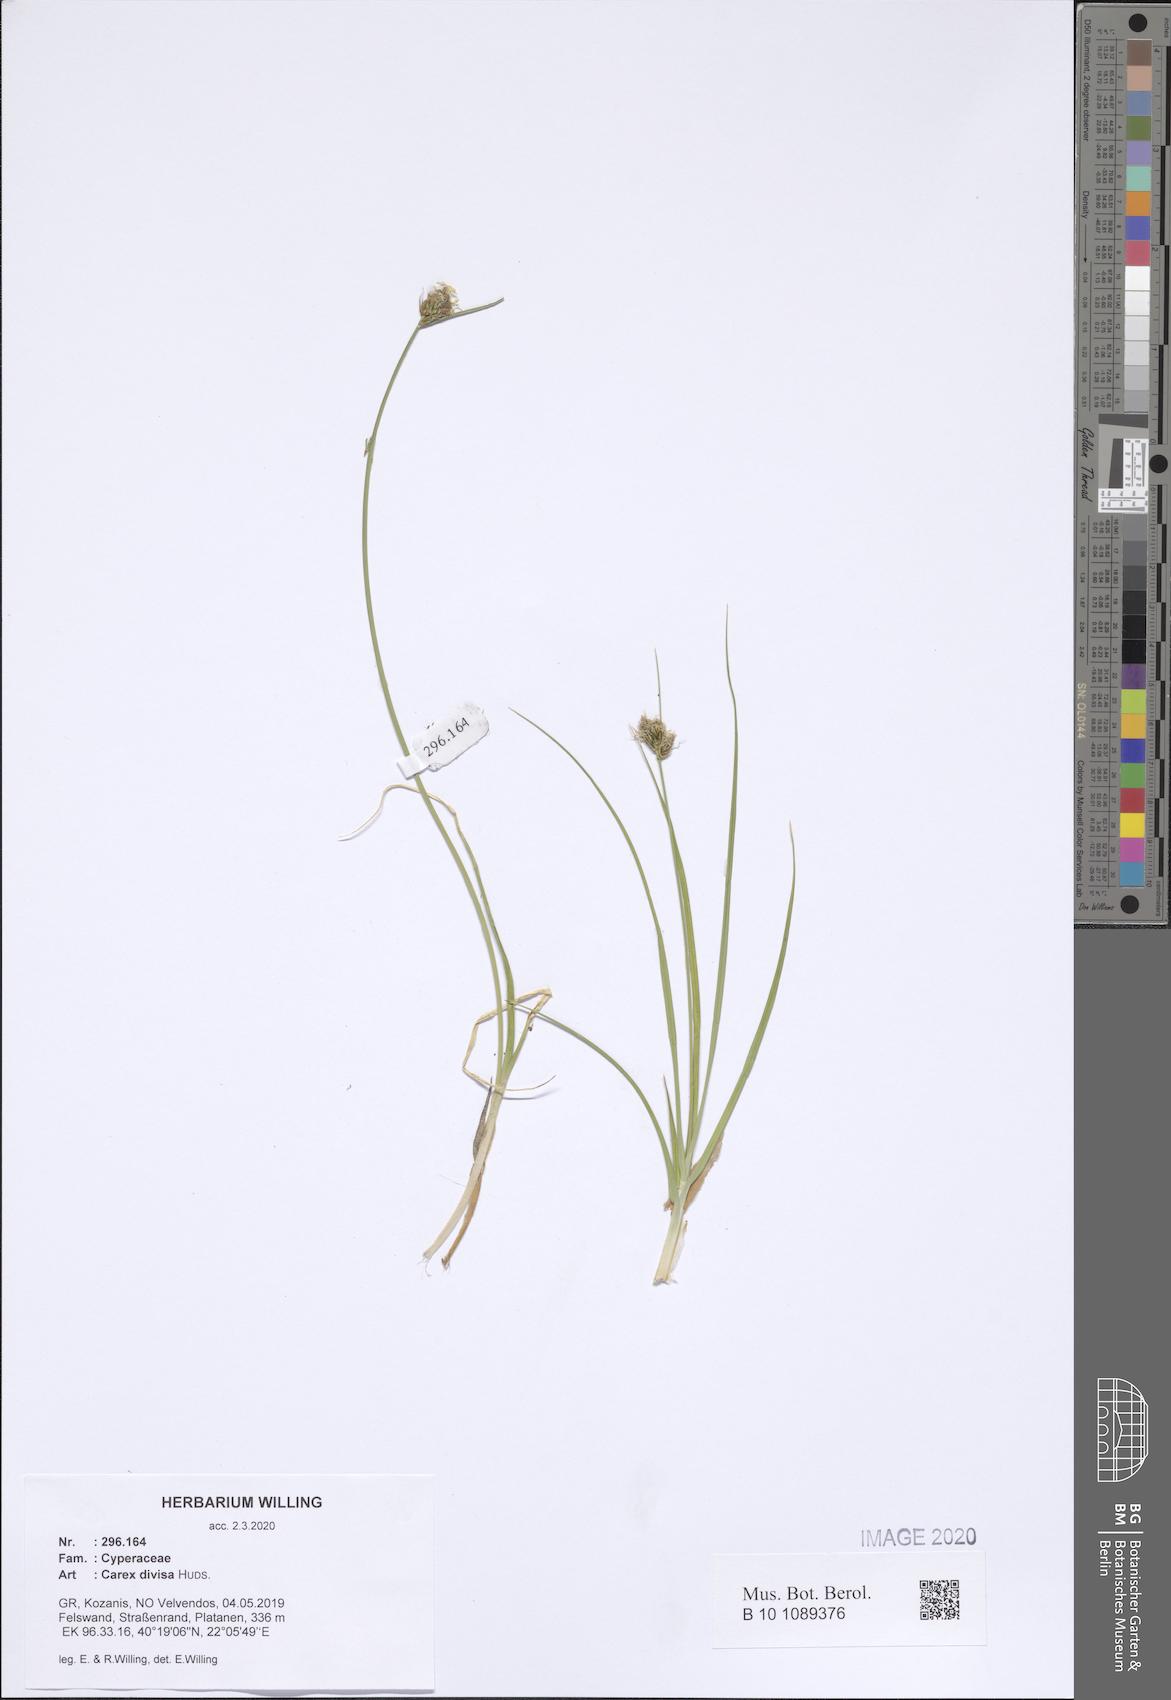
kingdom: Plantae
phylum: Tracheophyta
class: Liliopsida
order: Poales
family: Cyperaceae
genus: Carex
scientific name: Carex divisa
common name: Divided sedge
